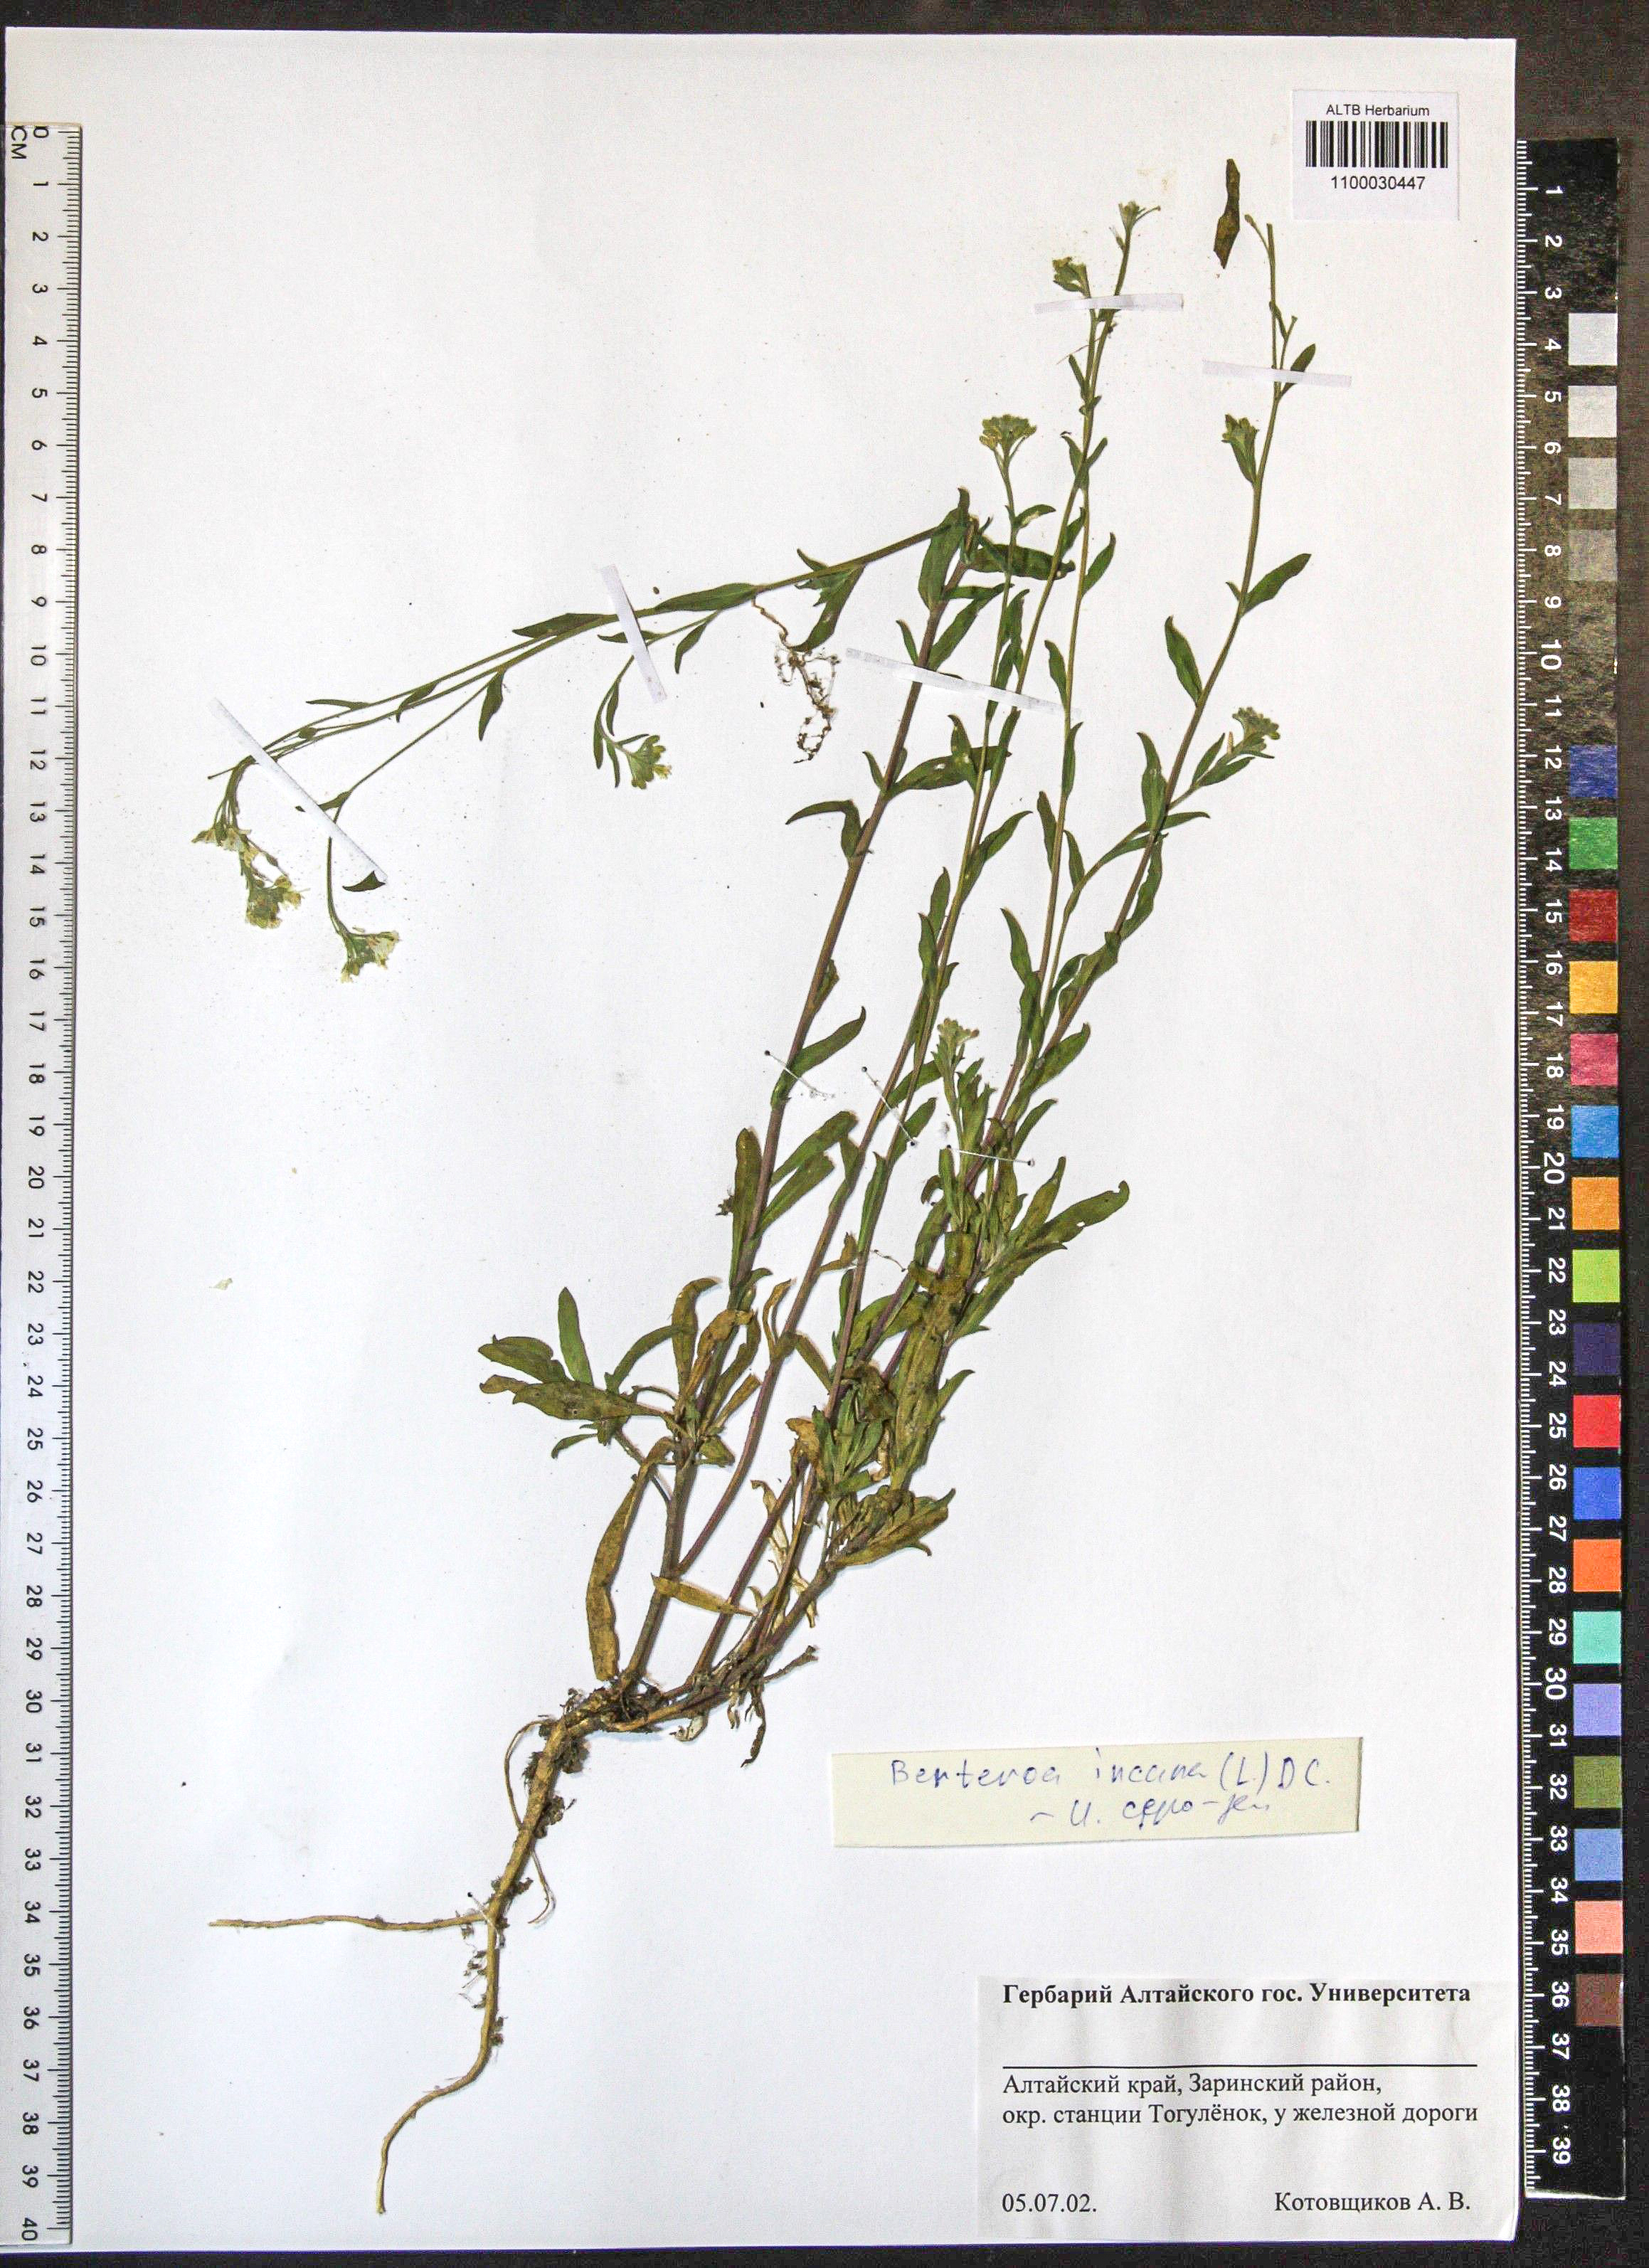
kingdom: Plantae
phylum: Tracheophyta
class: Magnoliopsida
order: Brassicales
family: Brassicaceae
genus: Berteroa
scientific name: Berteroa incana
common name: Hoary alison
